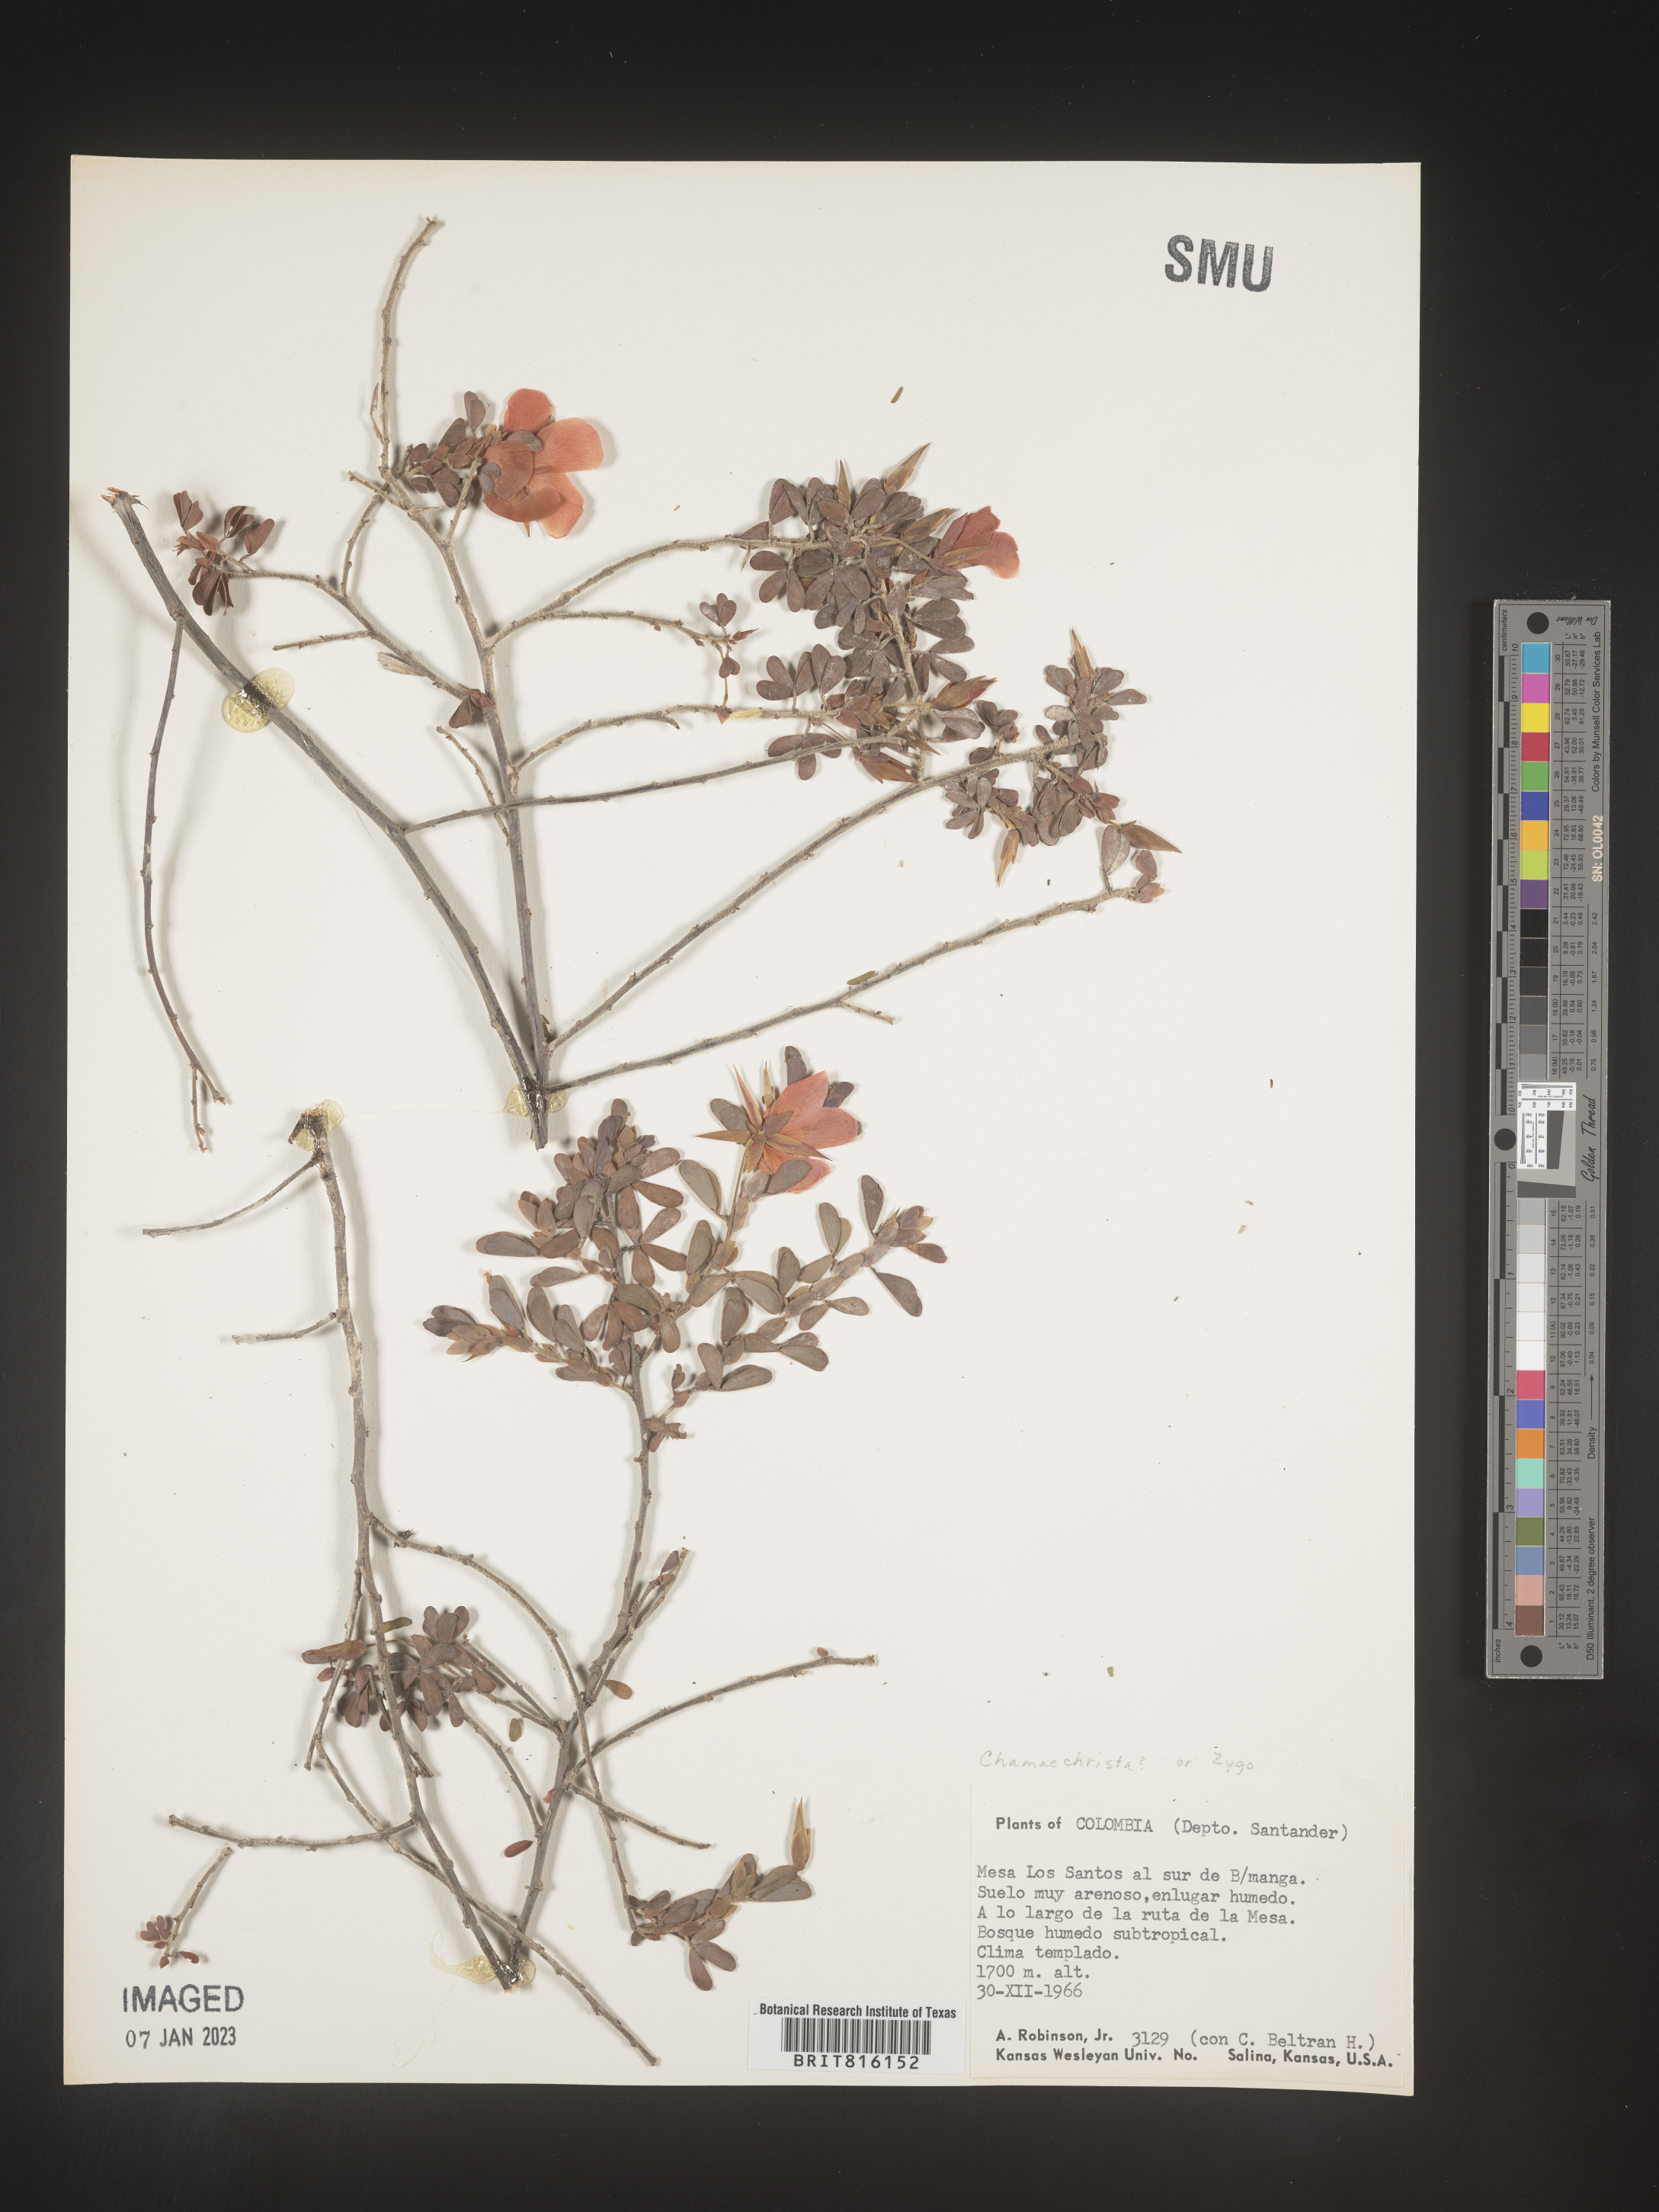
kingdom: Plantae
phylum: Tracheophyta
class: Magnoliopsida
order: Fabales
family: Fabaceae
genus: Chamaecrista
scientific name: Chamaecrista
